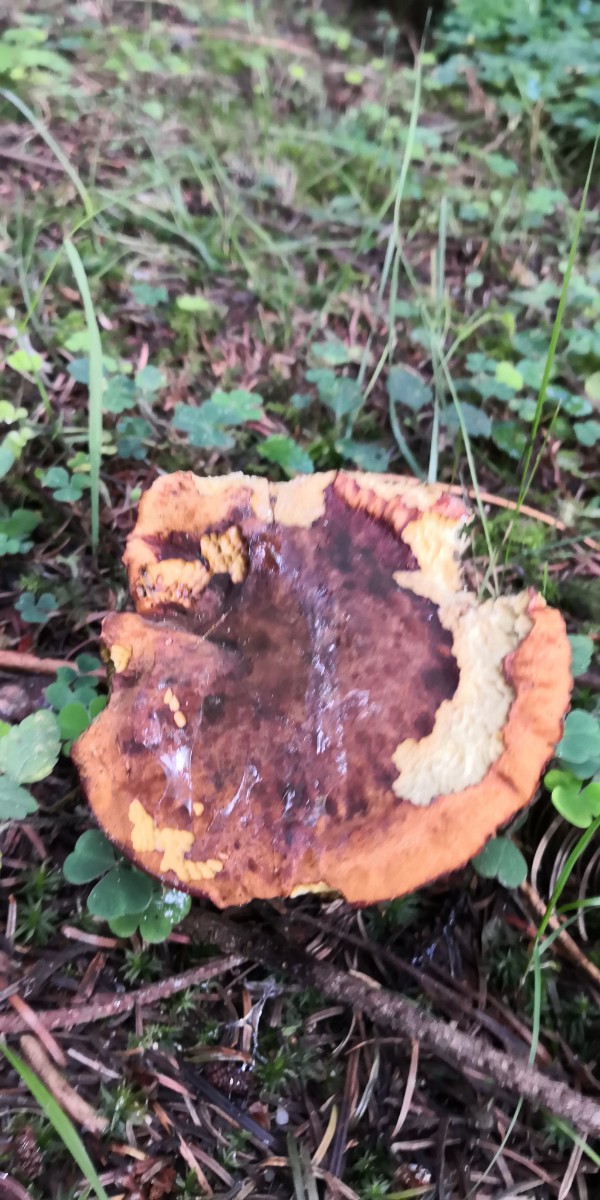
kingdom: Fungi
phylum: Basidiomycota
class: Agaricomycetes
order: Boletales
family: Boletaceae
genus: Neoboletus
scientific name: Neoboletus erythropus
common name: punktstokket indigorørhat
